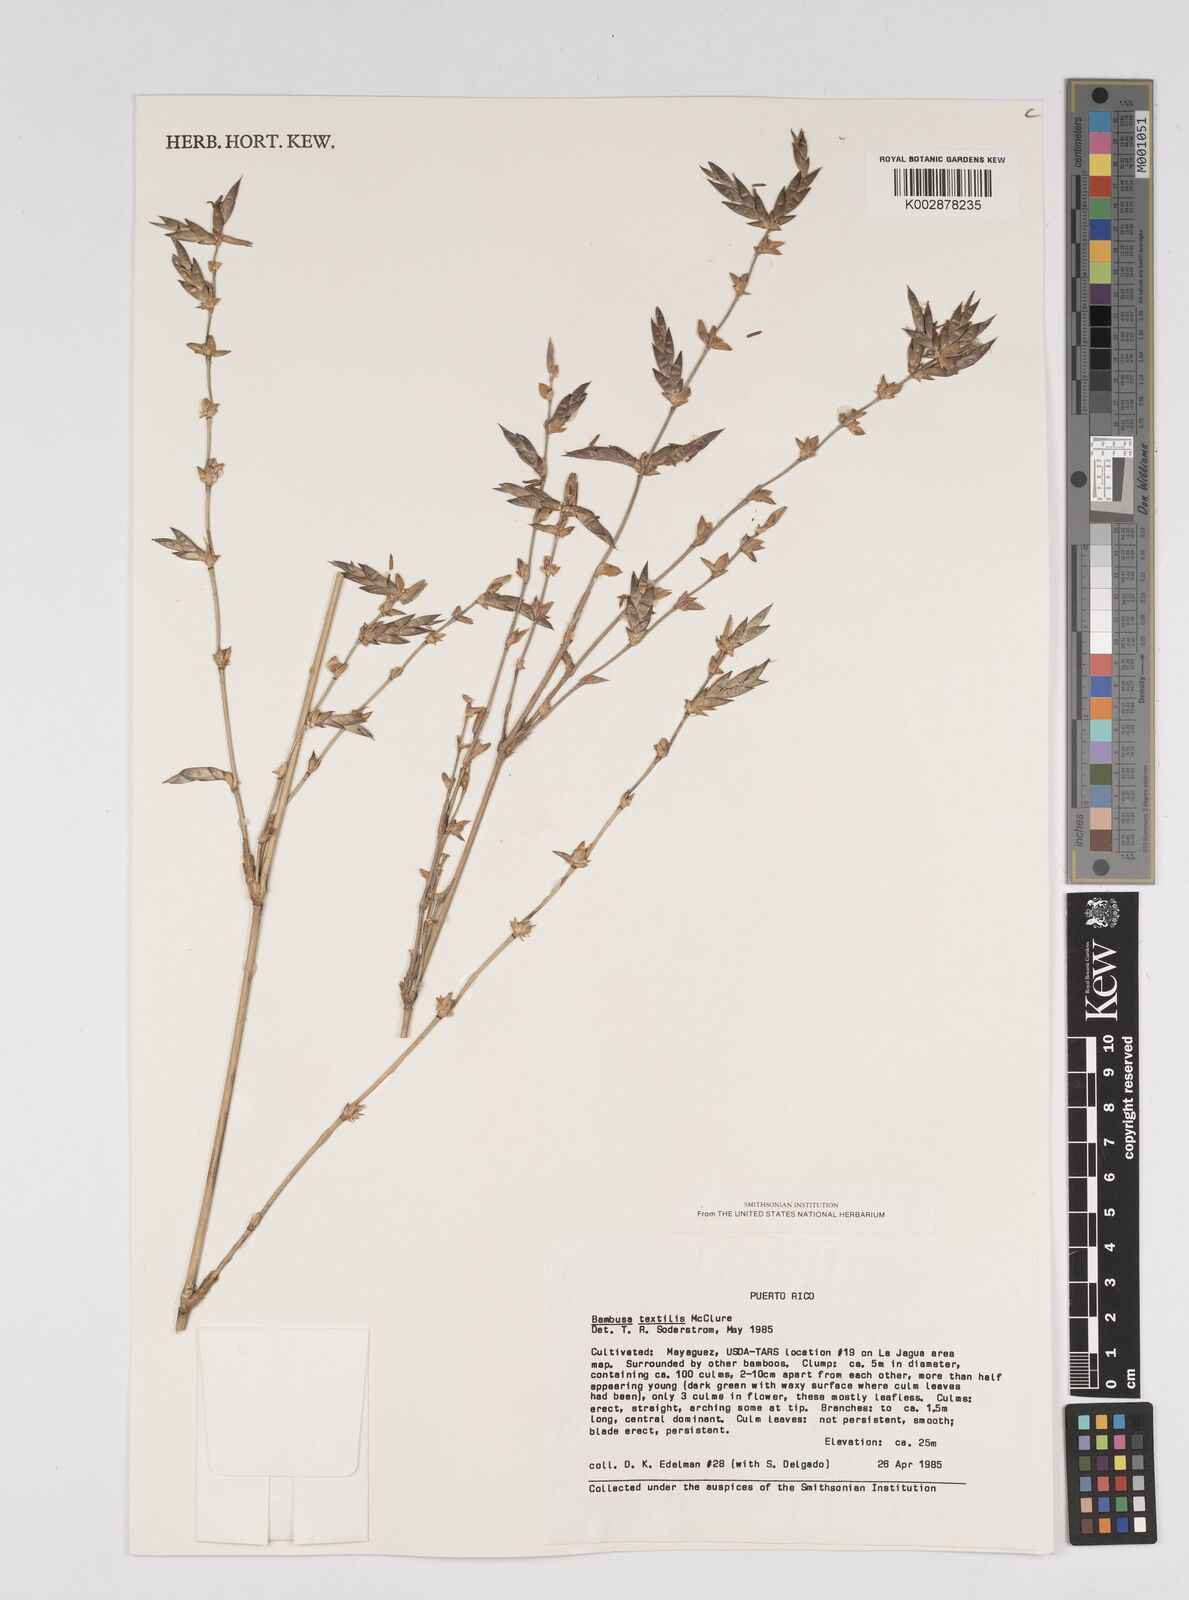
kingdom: Plantae
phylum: Tracheophyta
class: Liliopsida
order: Poales
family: Poaceae
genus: Bambusa
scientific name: Bambusa textilis
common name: Weaver's bamboo
